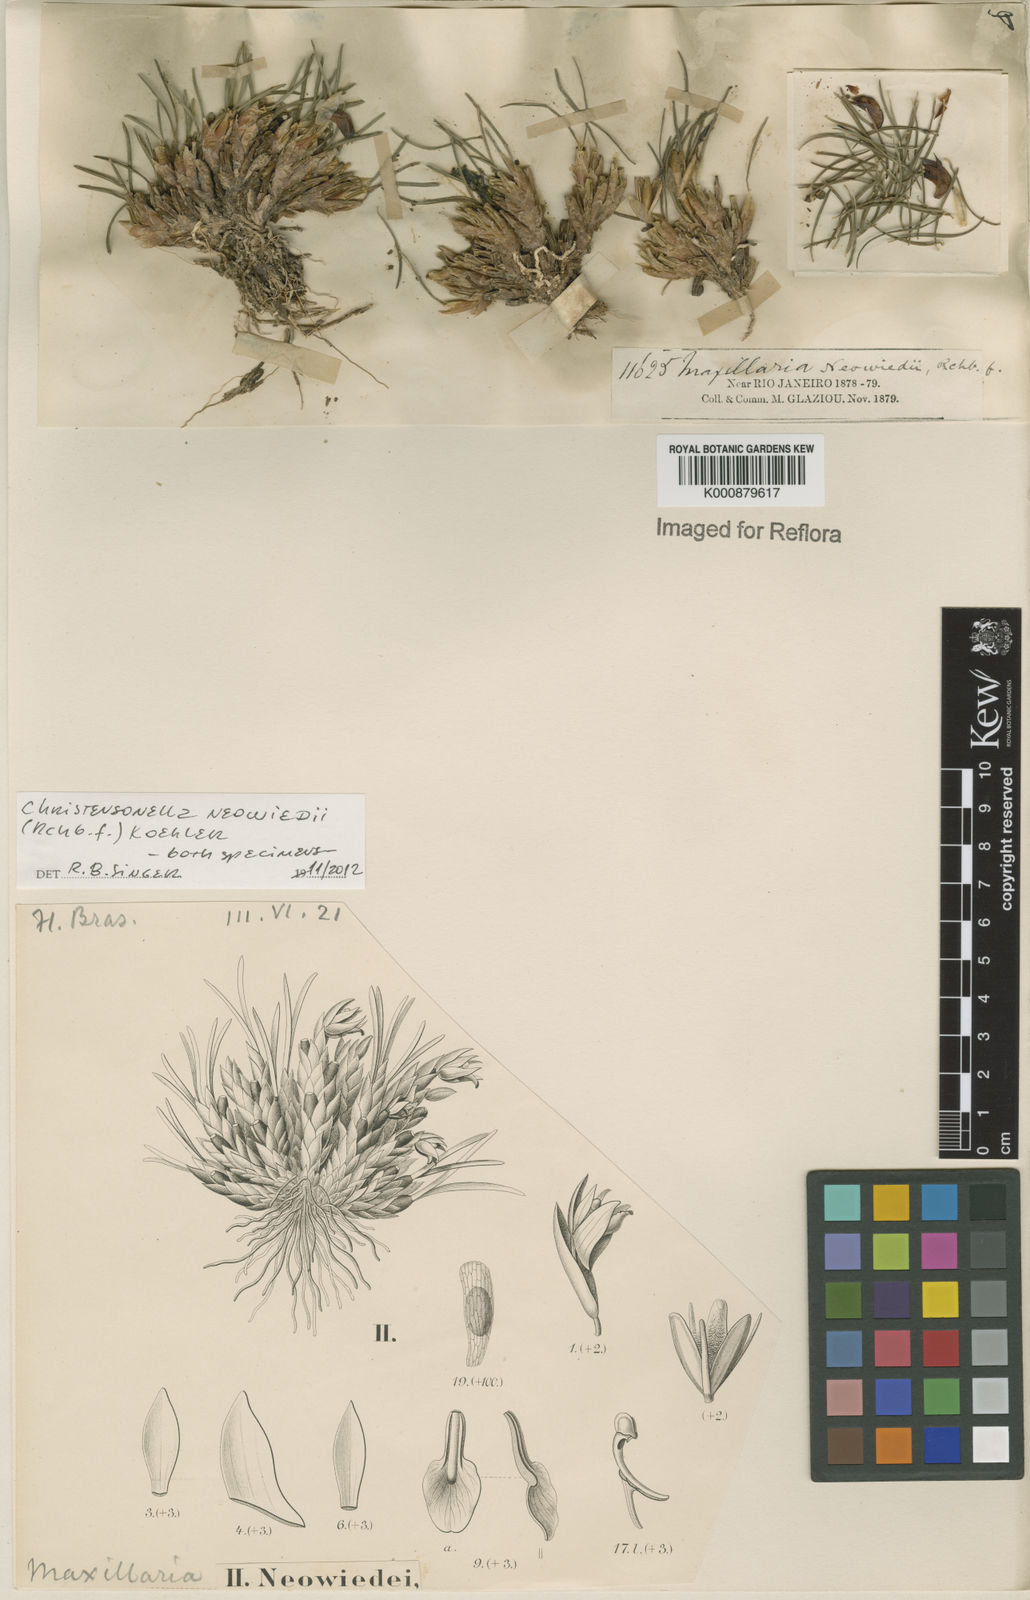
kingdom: Plantae
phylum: Tracheophyta
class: Liliopsida
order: Asparagales
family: Orchidaceae
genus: Maxillaria
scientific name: Maxillaria
